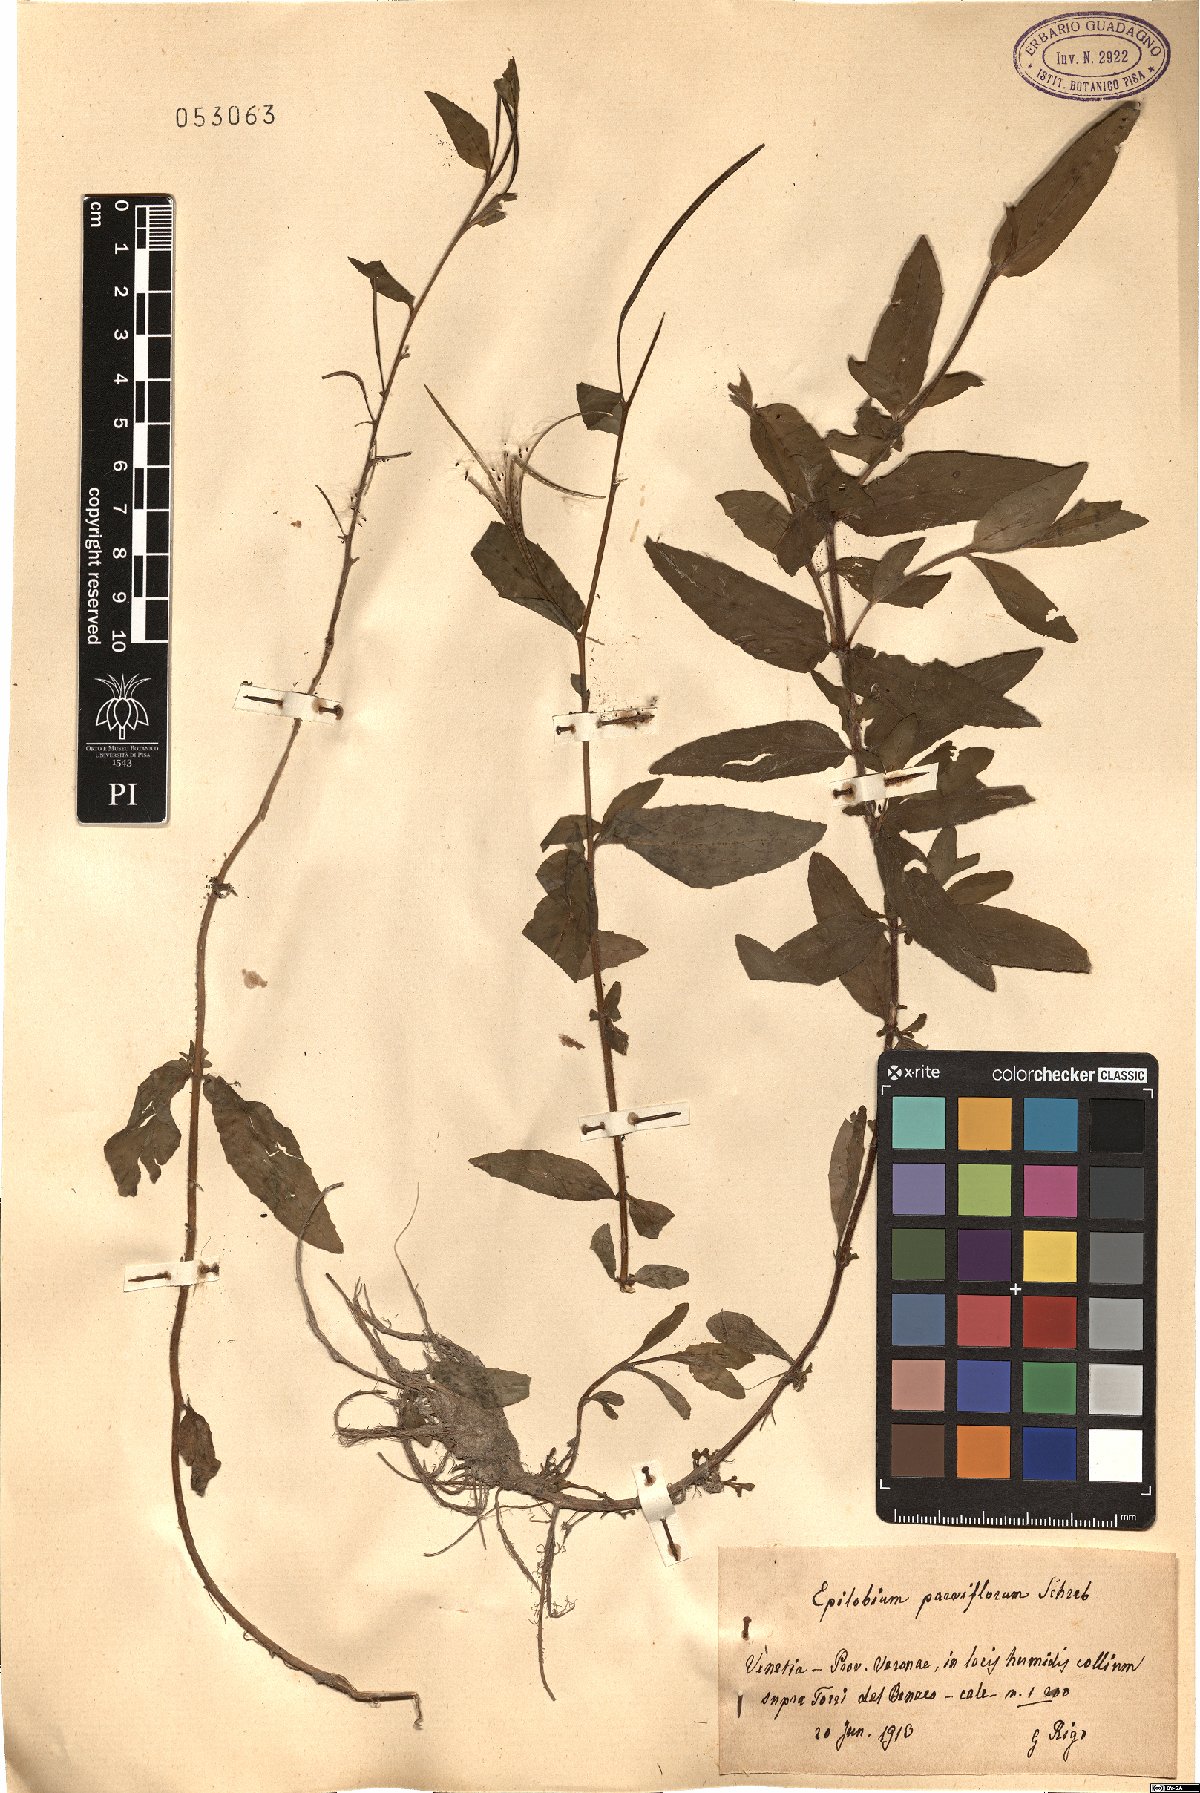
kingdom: Plantae
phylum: Tracheophyta
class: Magnoliopsida
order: Myrtales
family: Onagraceae
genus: Epilobium
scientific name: Epilobium parviflorum
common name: Hoary willowherb
